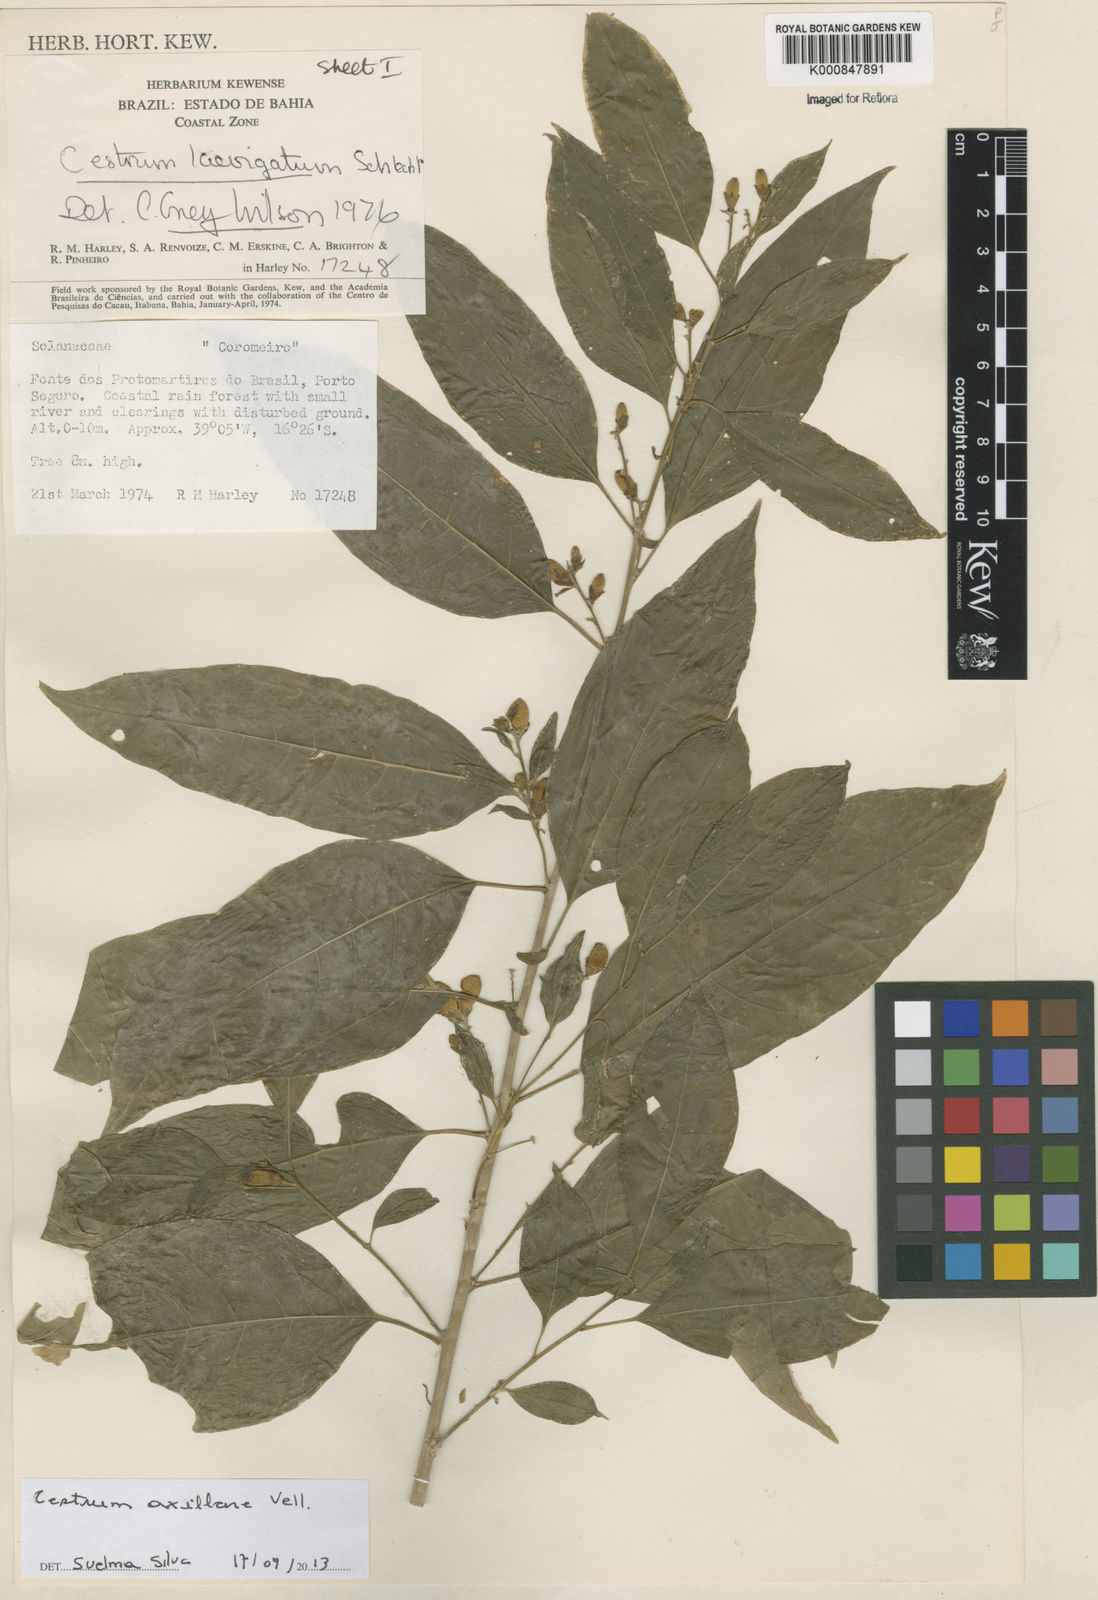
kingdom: Plantae
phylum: Tracheophyta
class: Magnoliopsida
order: Solanales
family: Solanaceae
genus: Cestrum
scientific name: Cestrum laevigatum
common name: Inkberry
